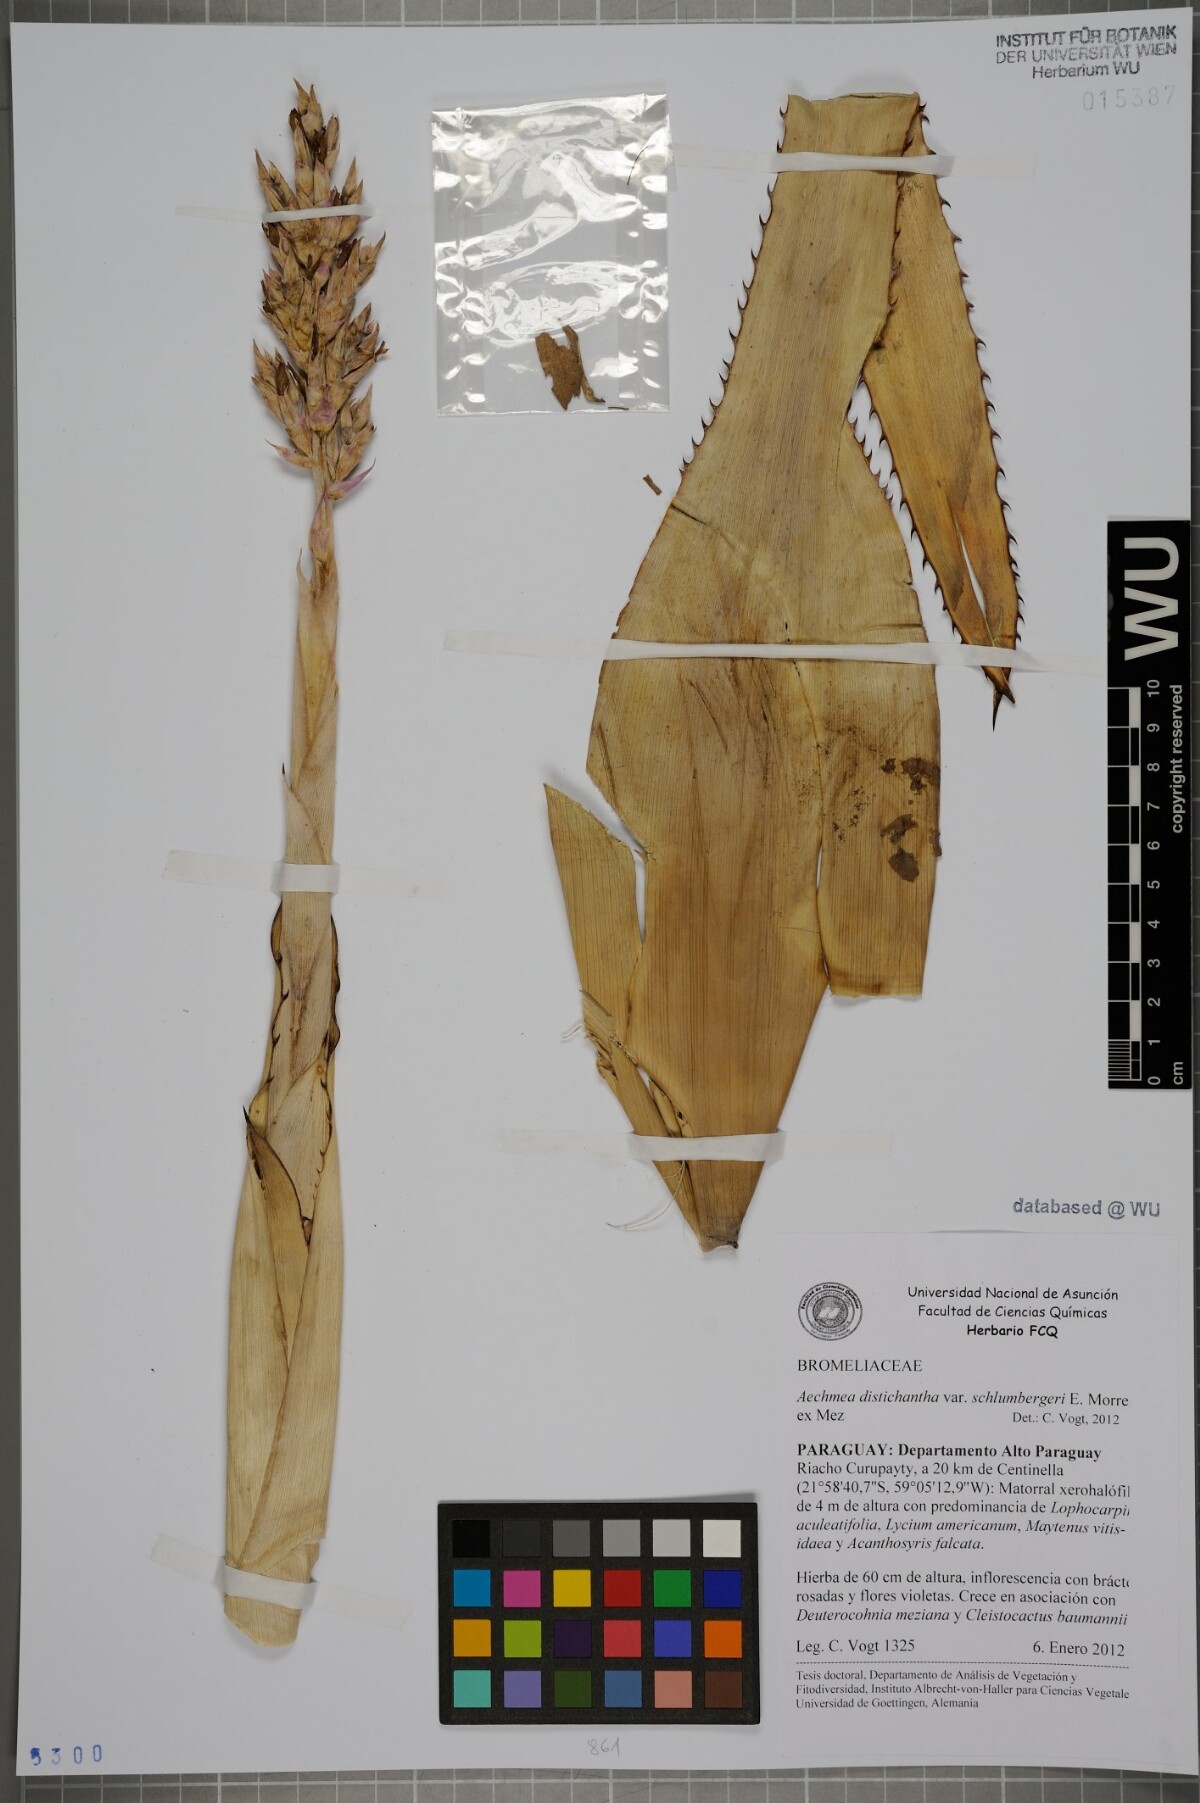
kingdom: Plantae
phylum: Tracheophyta
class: Liliopsida
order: Poales
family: Bromeliaceae
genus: Aechmea
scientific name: Aechmea distichantha
